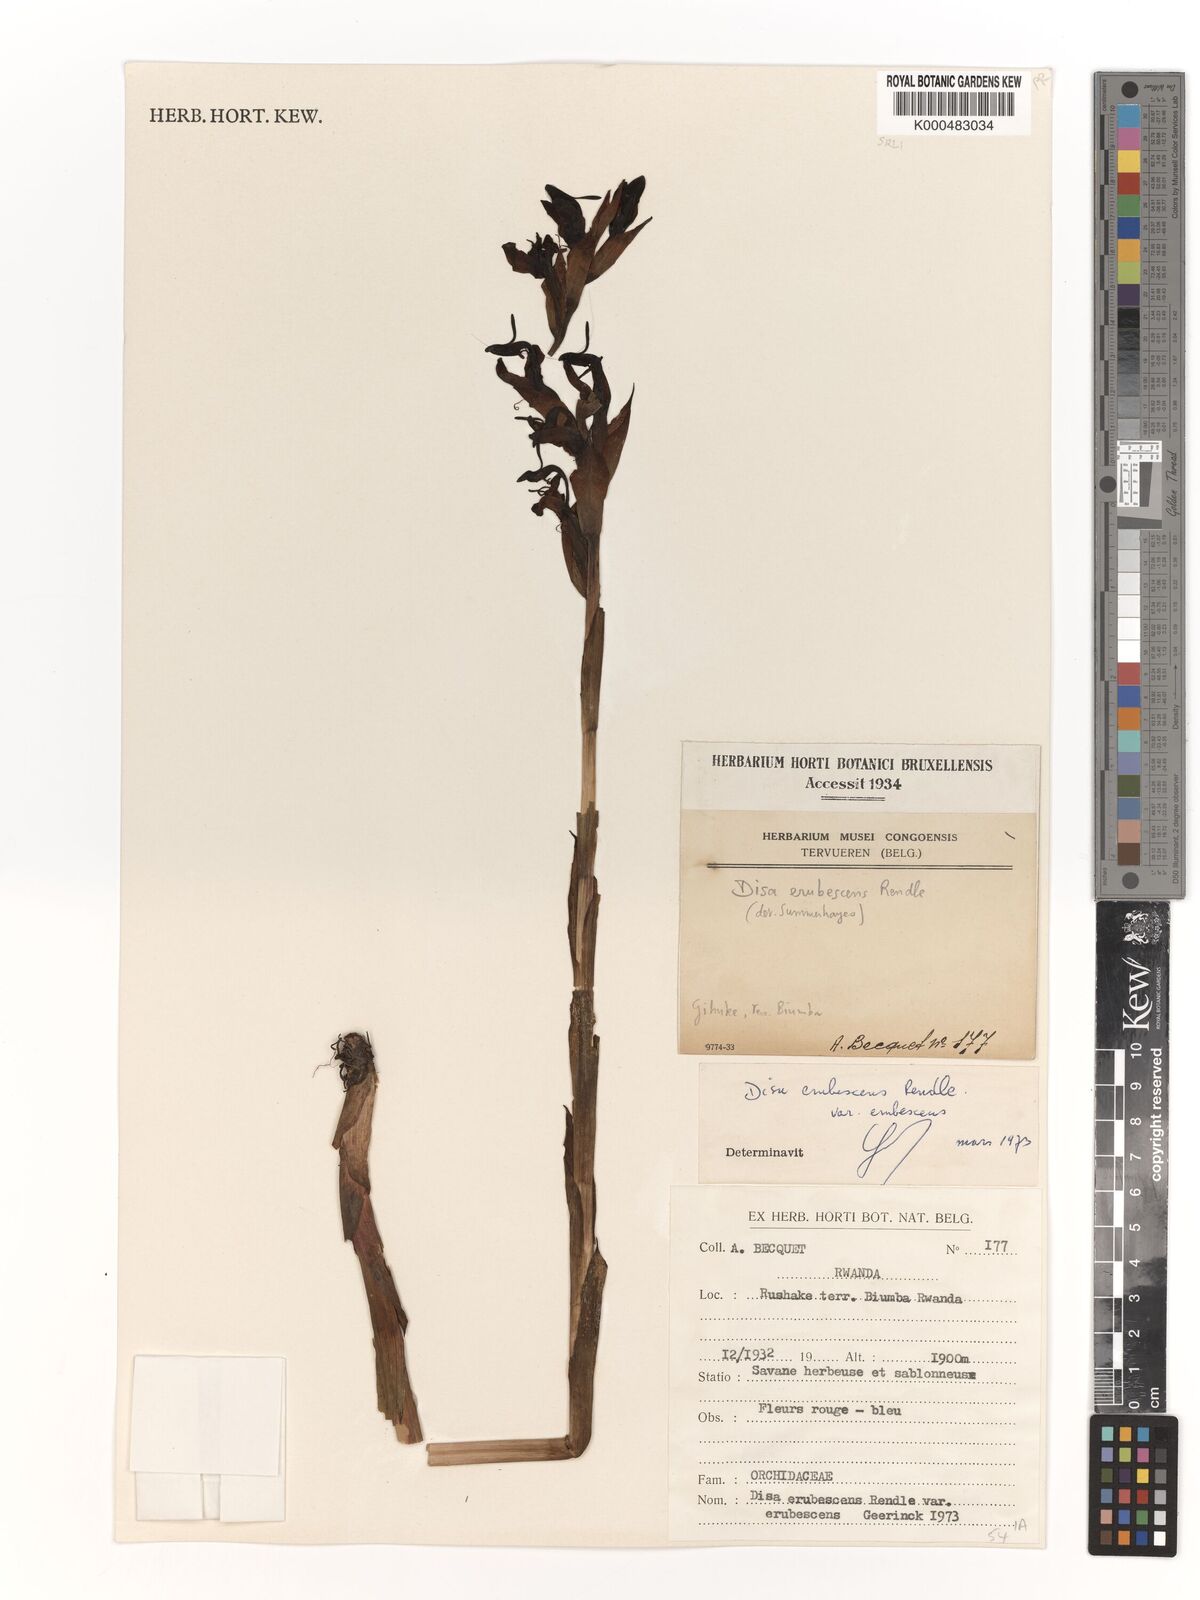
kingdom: Plantae
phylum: Tracheophyta
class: Liliopsida
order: Asparagales
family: Orchidaceae
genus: Disa
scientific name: Disa erubescens
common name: The rose disa
